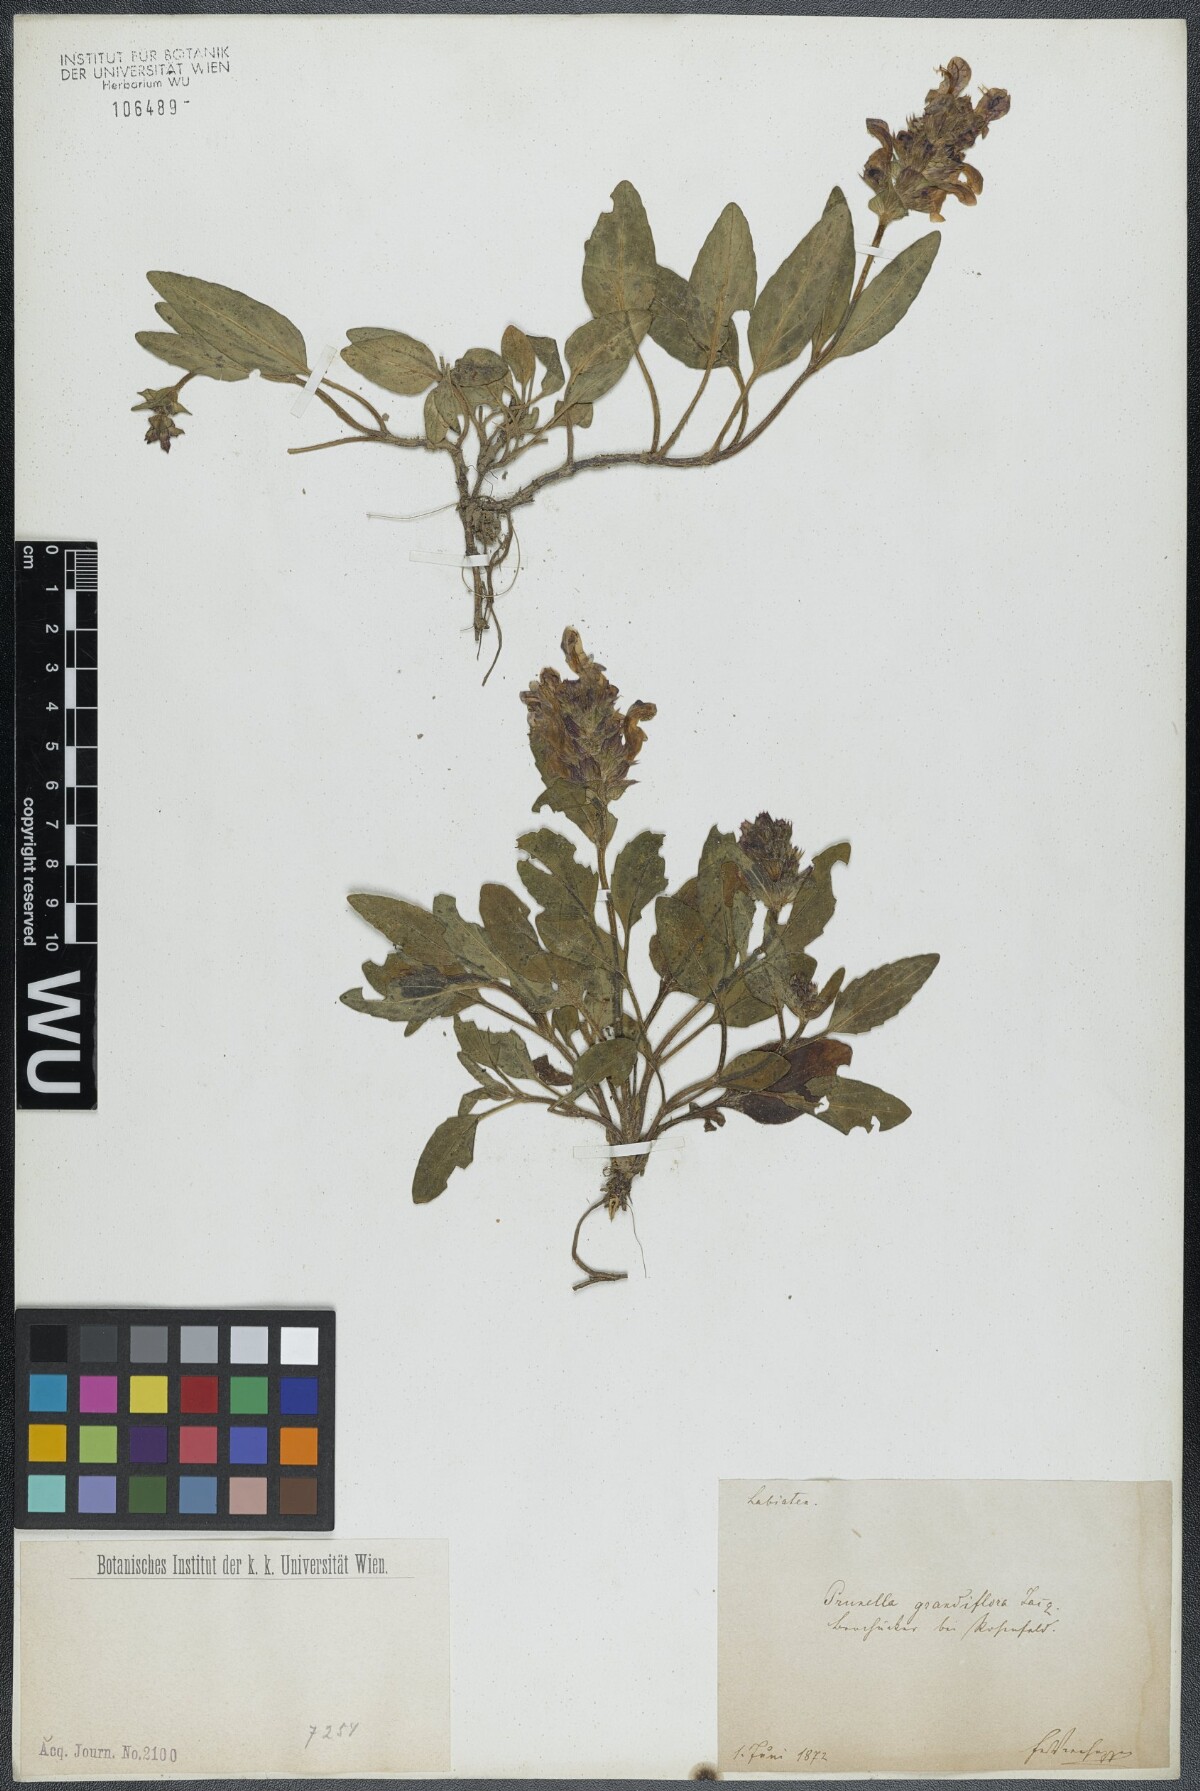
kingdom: Plantae
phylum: Tracheophyta
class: Magnoliopsida
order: Lamiales
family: Lamiaceae
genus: Prunella
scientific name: Prunella grandiflora
